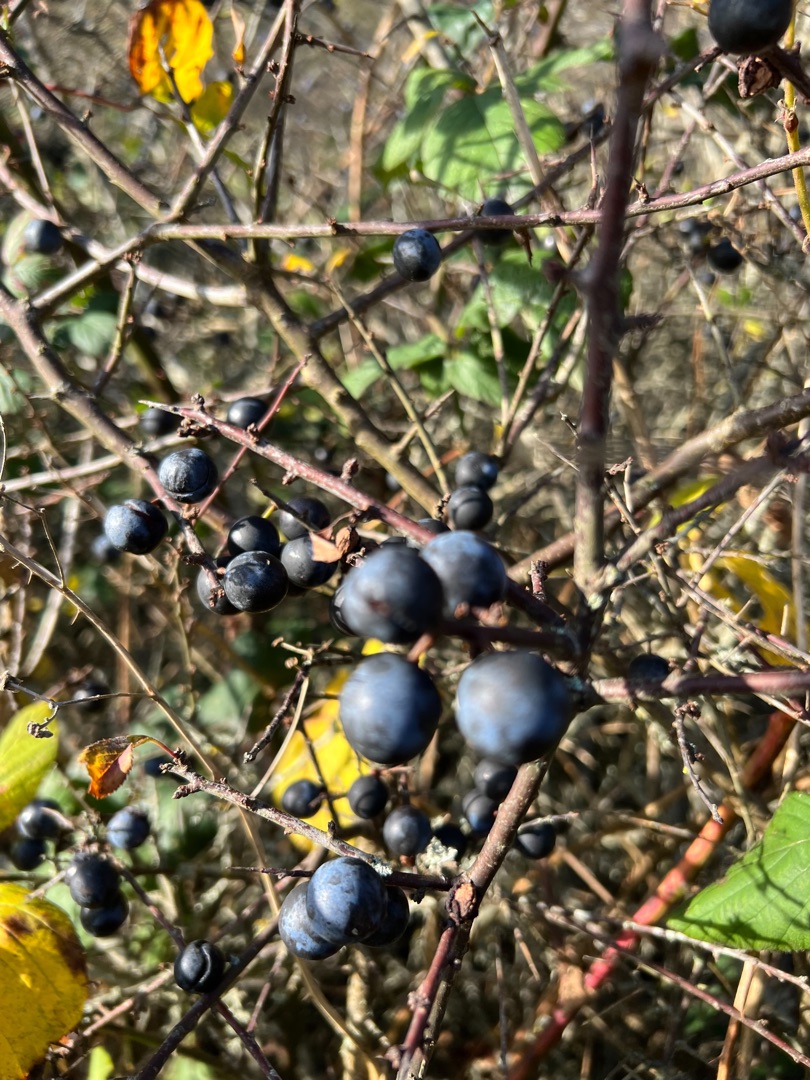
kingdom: Plantae
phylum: Tracheophyta
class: Magnoliopsida
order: Rosales
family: Rosaceae
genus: Prunus
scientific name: Prunus spinosa
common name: Slåen
